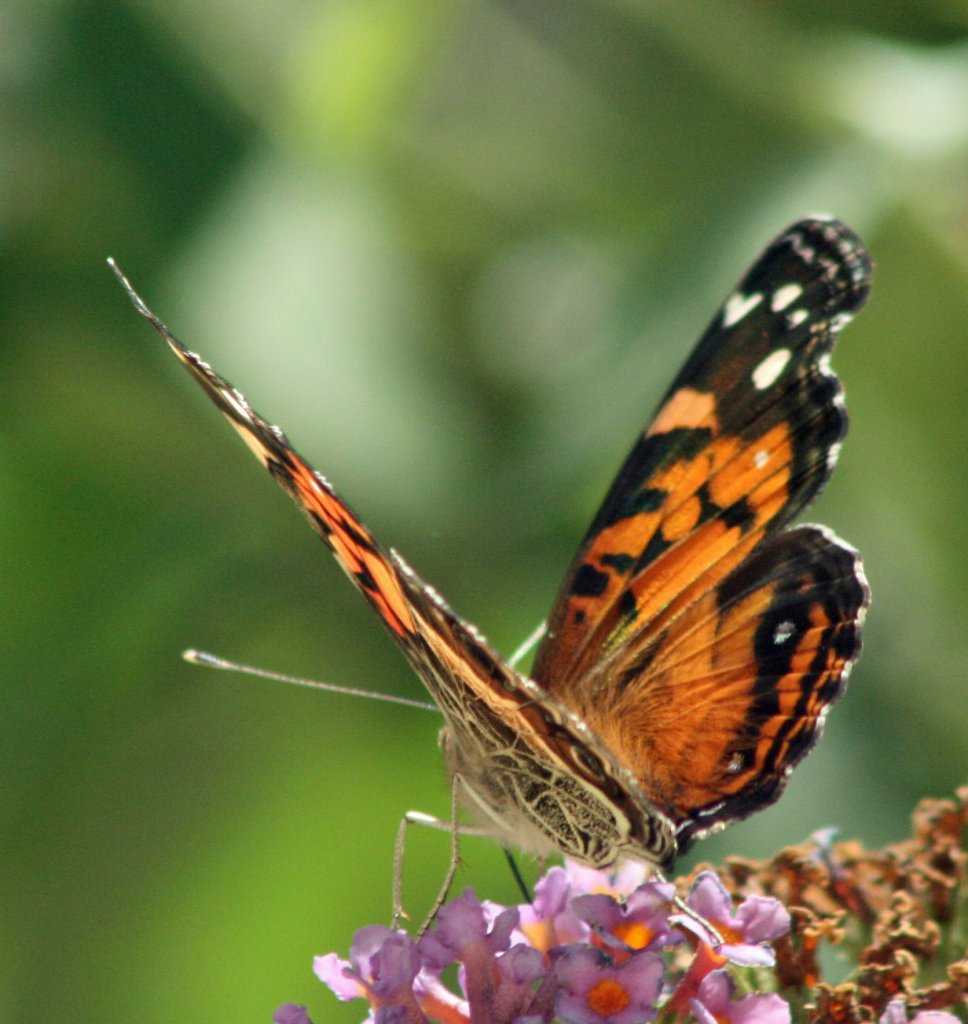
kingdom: Animalia
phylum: Arthropoda
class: Insecta
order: Lepidoptera
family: Nymphalidae
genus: Vanessa
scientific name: Vanessa virginiensis
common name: American Lady
